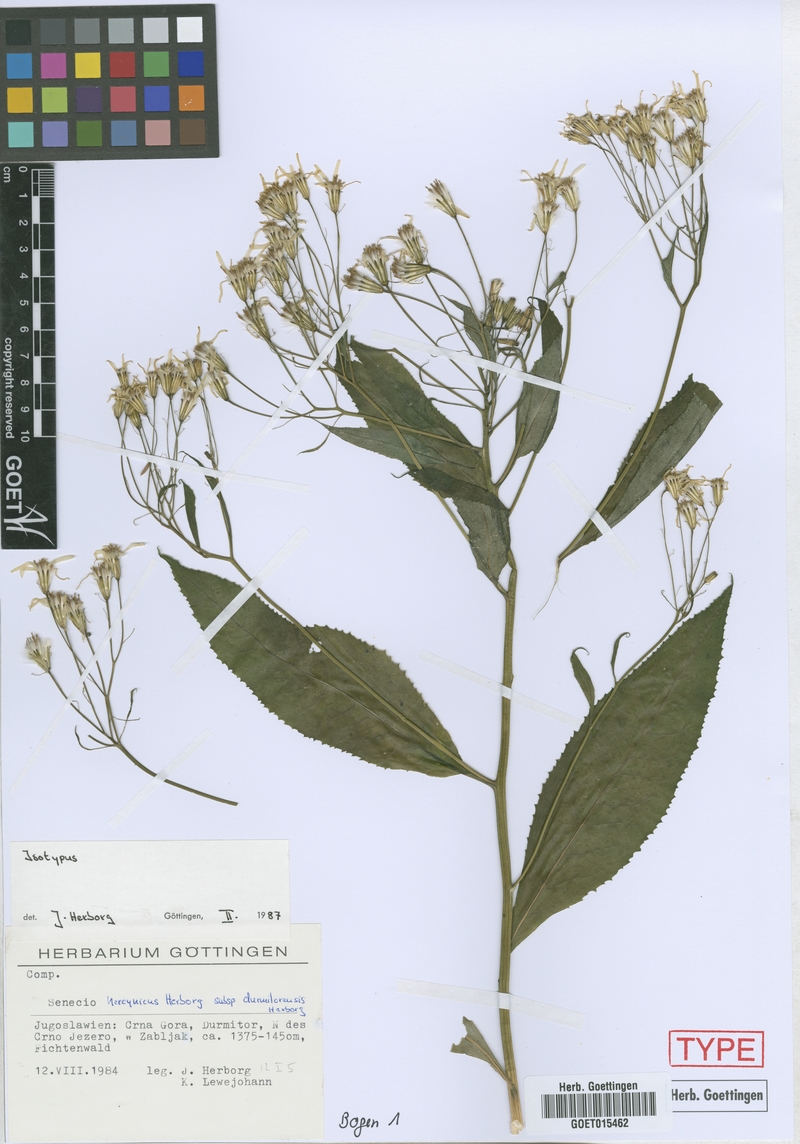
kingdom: Plantae
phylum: Tracheophyta
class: Magnoliopsida
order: Asterales
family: Asteraceae
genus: Senecio
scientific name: Senecio hercynicus
